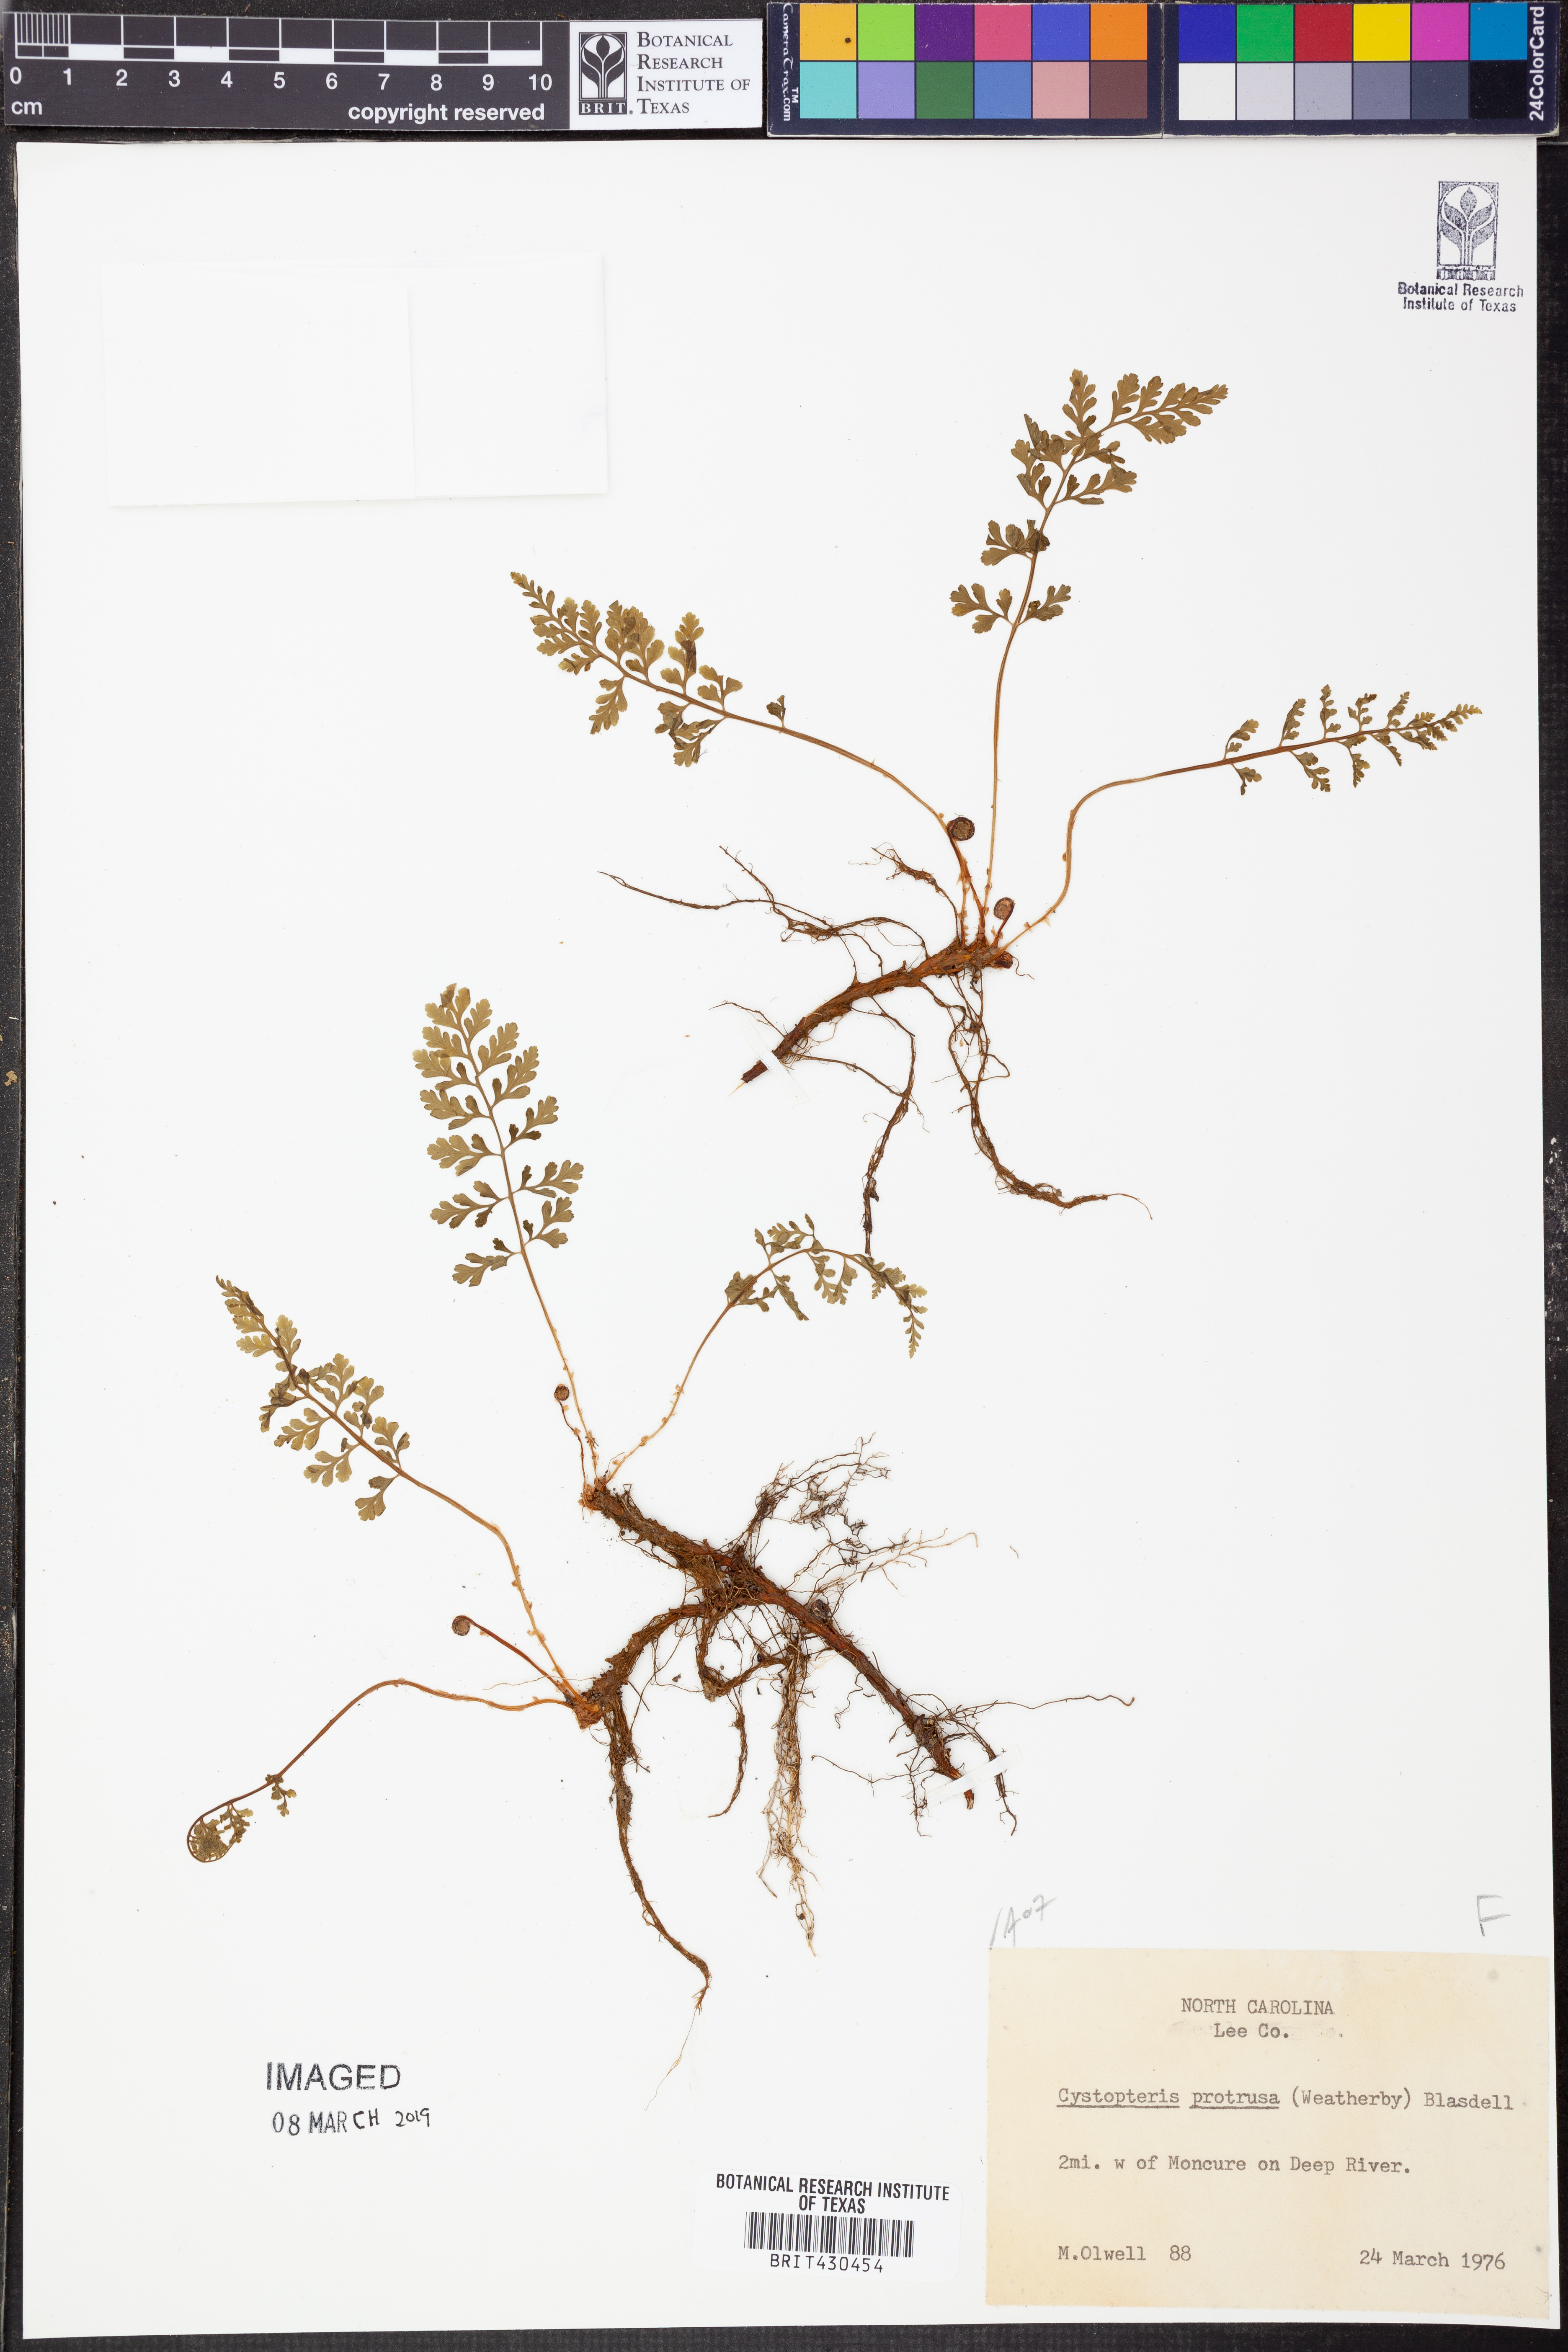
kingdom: Plantae
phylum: Tracheophyta
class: Polypodiopsida
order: Polypodiales
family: Cystopteridaceae
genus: Cystopteris
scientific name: Cystopteris protrusa
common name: Lowland brittle fern
